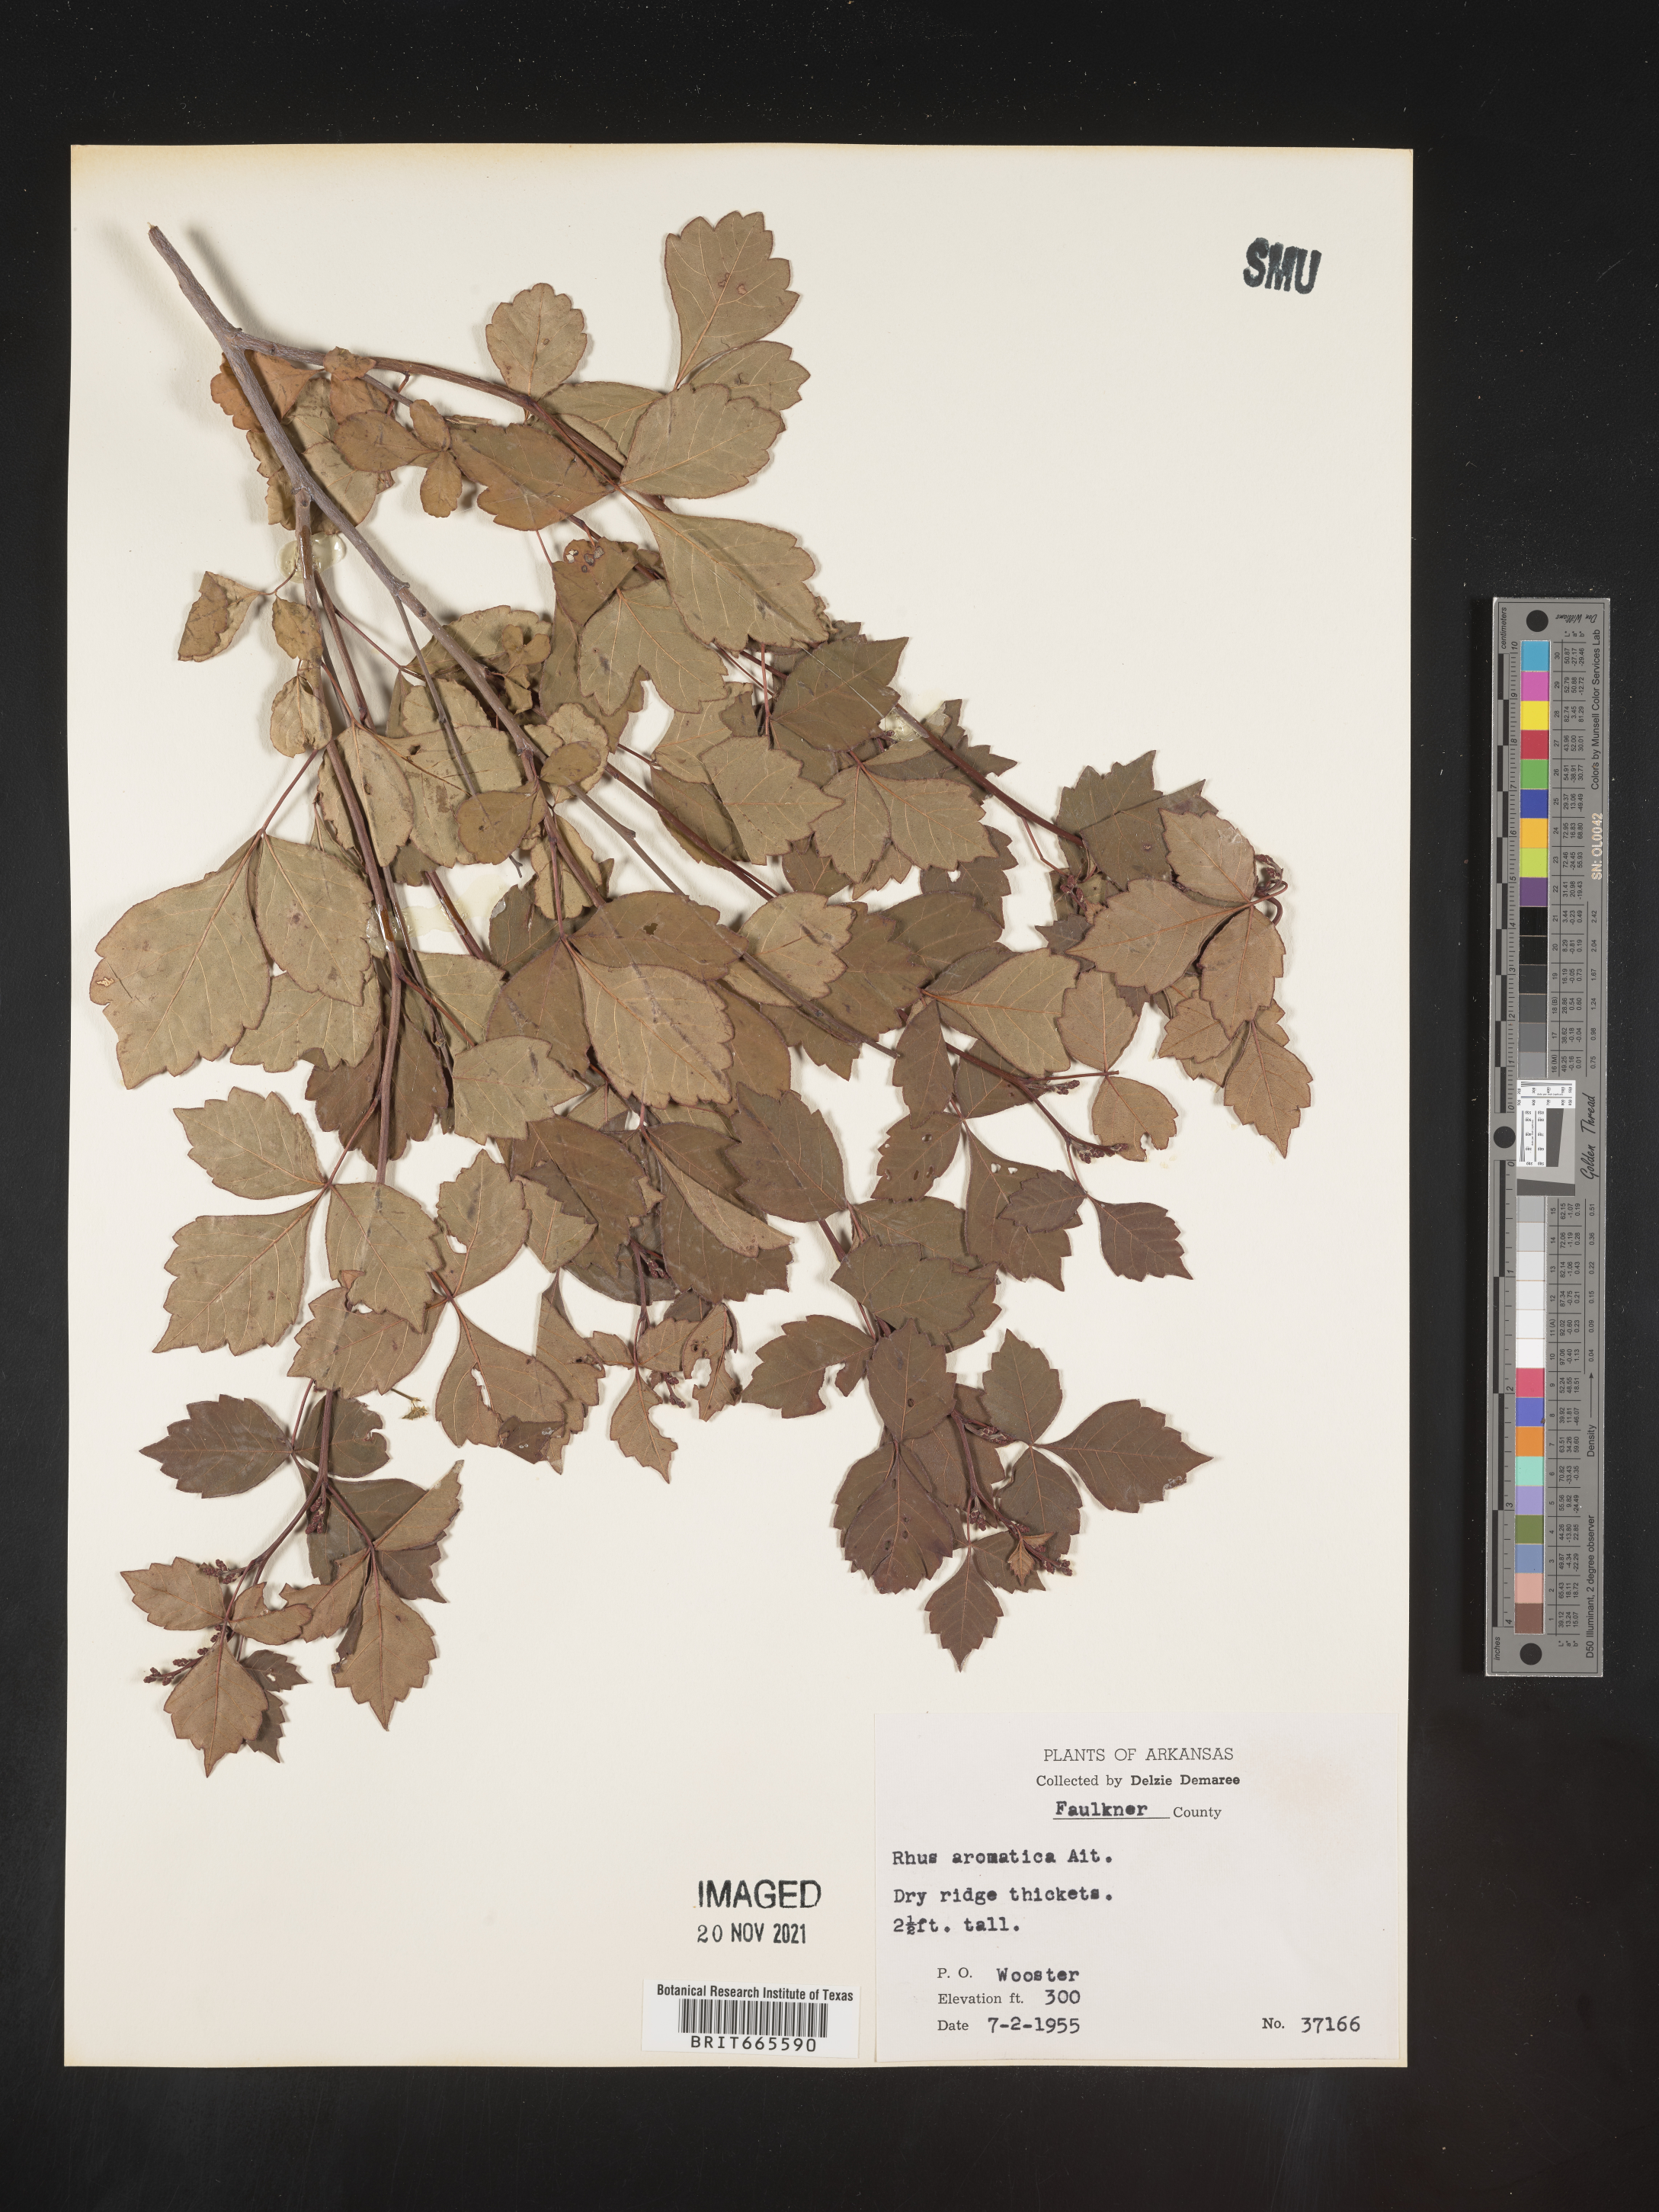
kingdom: Plantae
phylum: Tracheophyta
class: Magnoliopsida
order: Sapindales
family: Anacardiaceae
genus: Rhus
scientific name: Rhus aromatica
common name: Aromatic sumac
